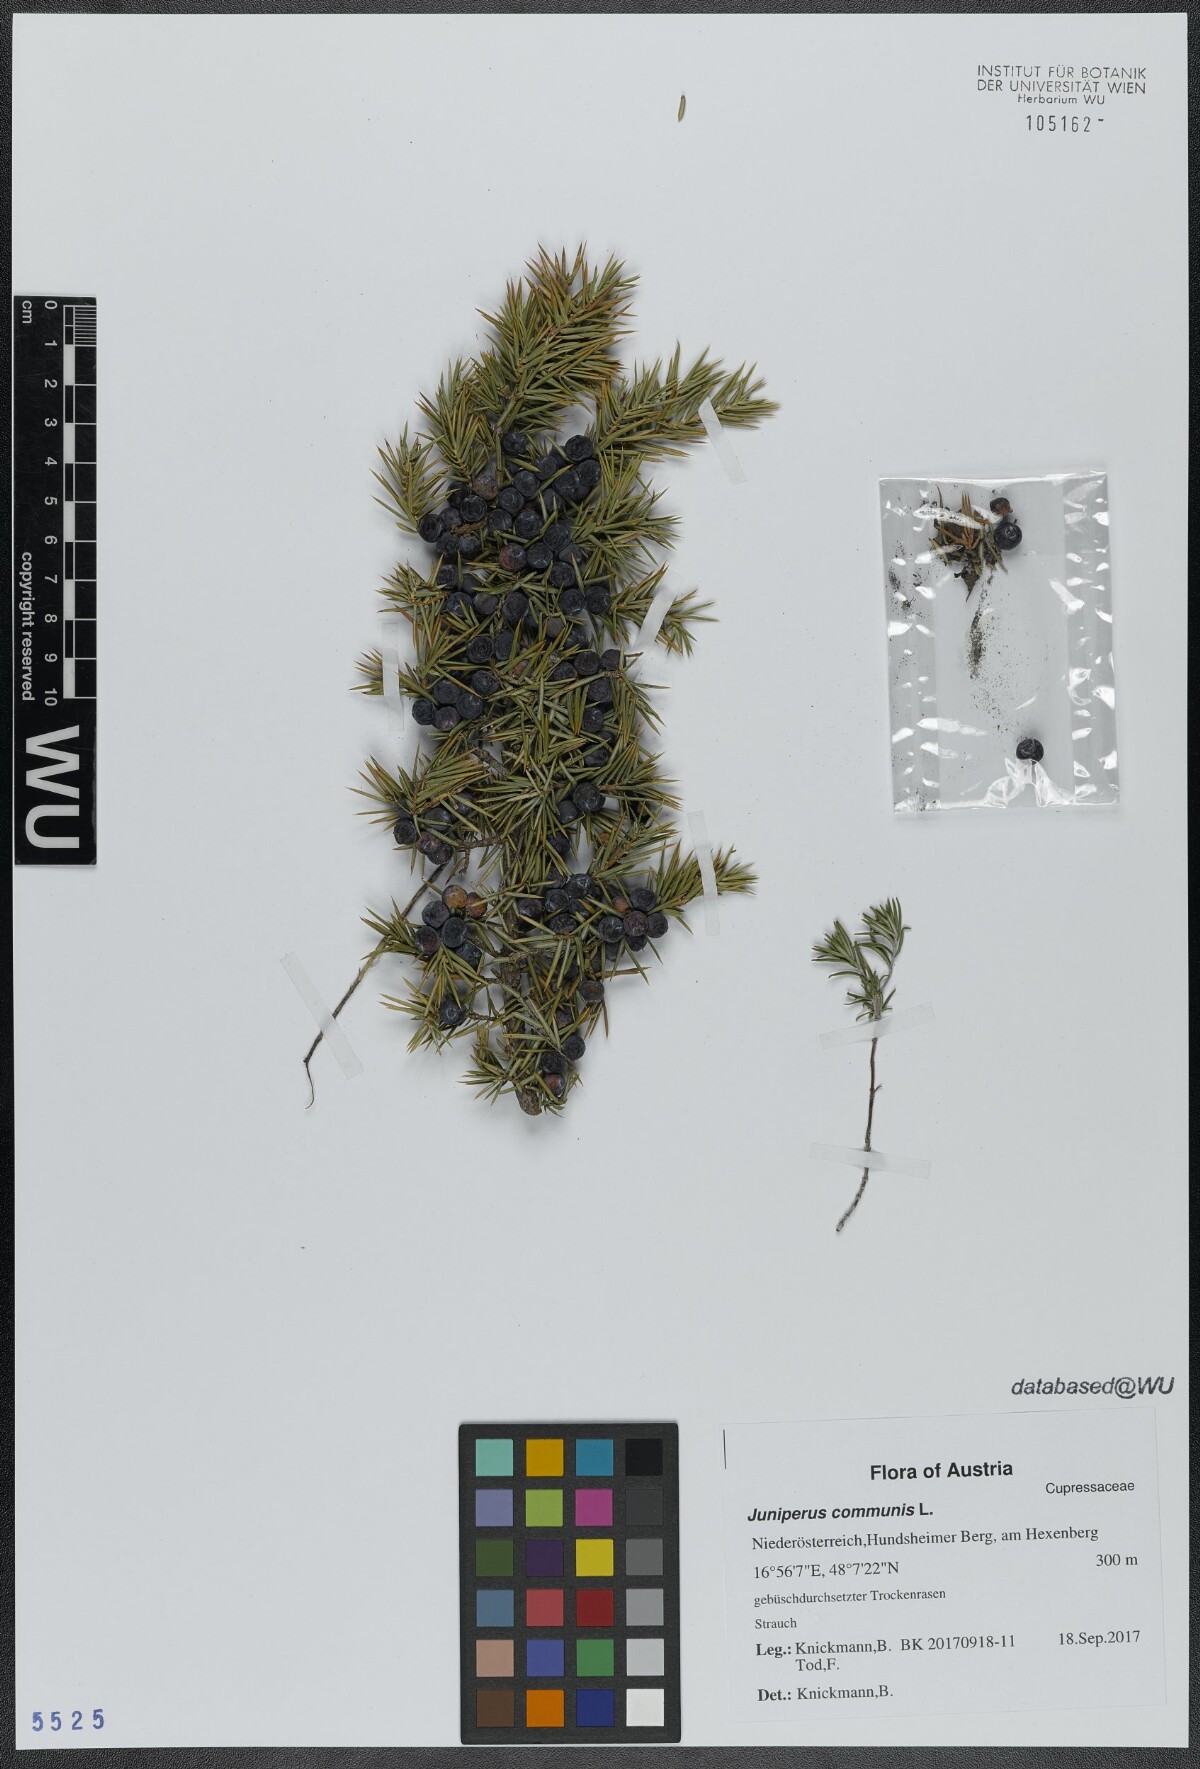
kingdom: Plantae
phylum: Tracheophyta
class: Pinopsida
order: Pinales
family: Cupressaceae
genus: Juniperus
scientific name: Juniperus communis
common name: Common juniper
